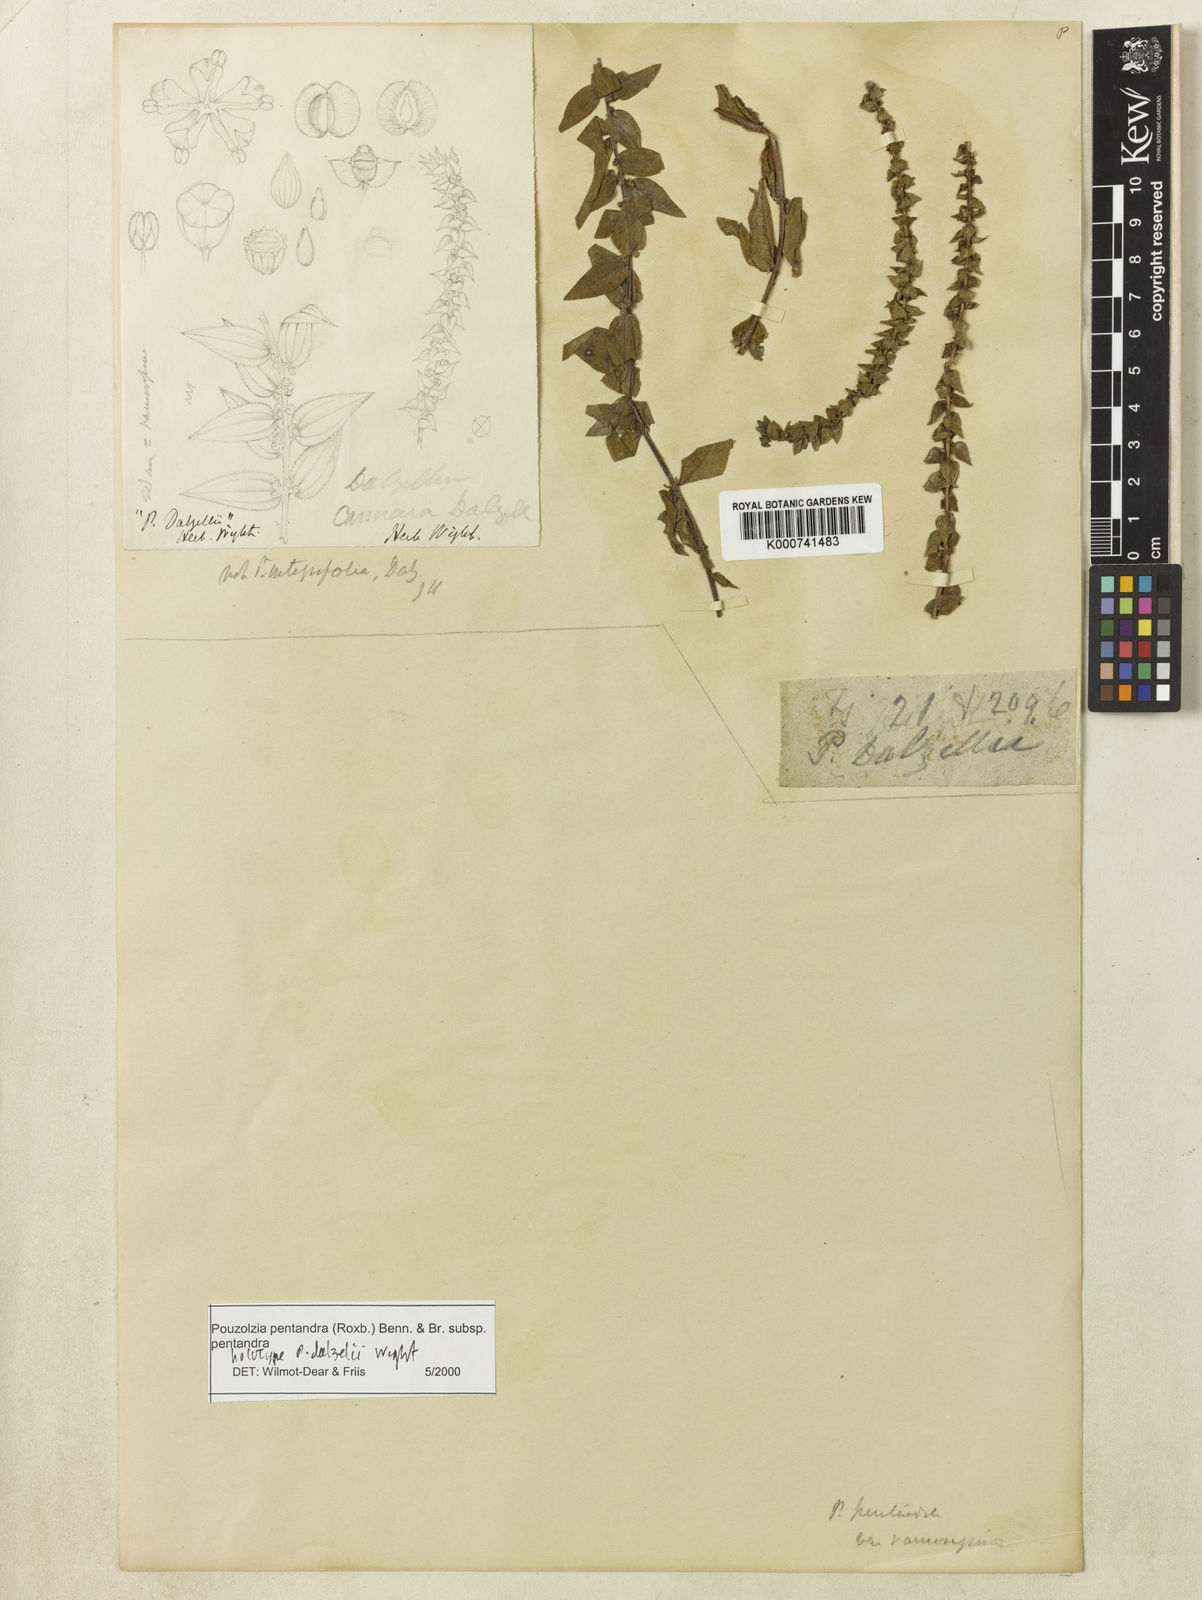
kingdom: Plantae
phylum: Tracheophyta
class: Magnoliopsida
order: Rosales
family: Urticaceae
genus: Gonostegia
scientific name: Gonostegia pentandra
